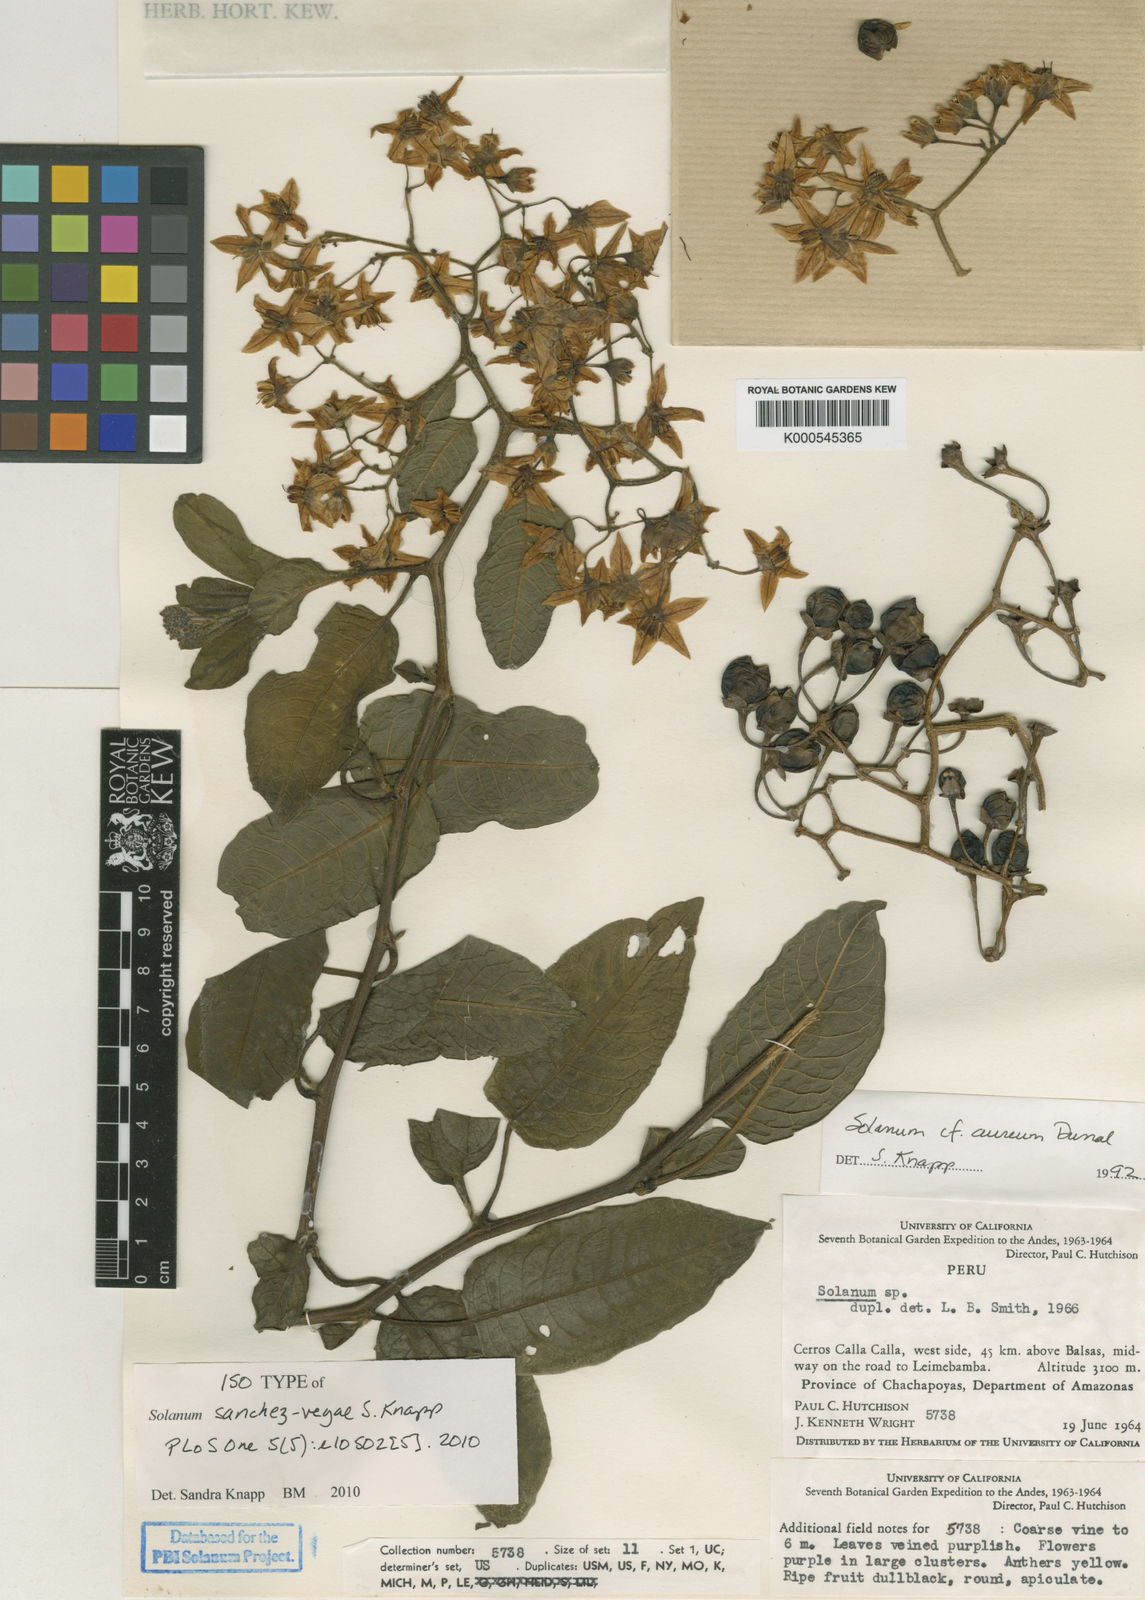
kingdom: Plantae
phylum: Tracheophyta
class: Magnoliopsida
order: Solanales
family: Solanaceae
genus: Solanum
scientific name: Solanum sanchez-vegae
